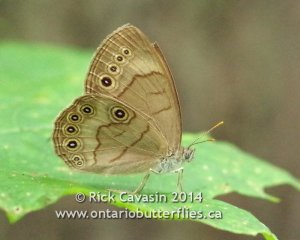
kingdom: Animalia
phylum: Arthropoda
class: Insecta
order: Lepidoptera
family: Nymphalidae
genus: Lethe
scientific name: Lethe eurydice
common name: Appalachian Eyed Brown
